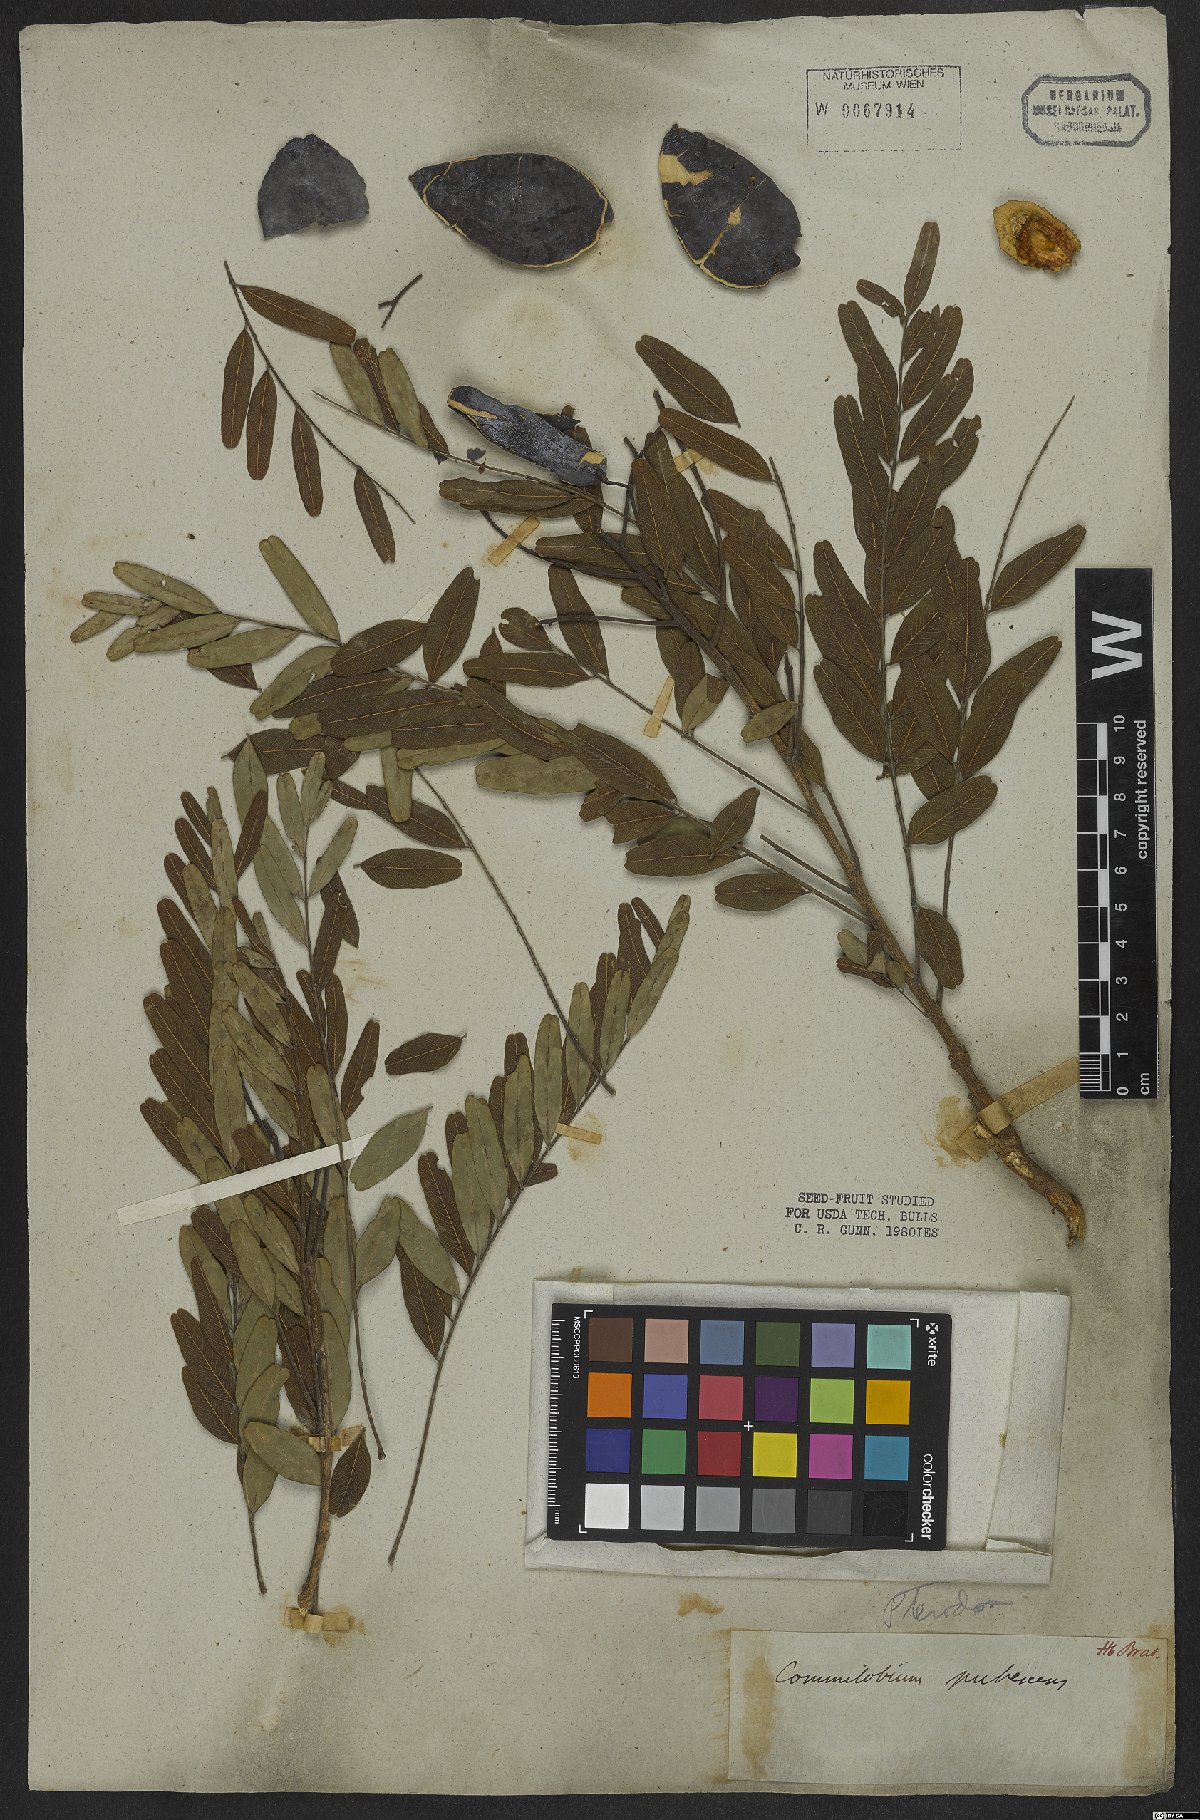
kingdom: Plantae
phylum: Tracheophyta
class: Magnoliopsida
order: Fabales
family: Fabaceae
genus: Pterodon
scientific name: Pterodon emarginatus
